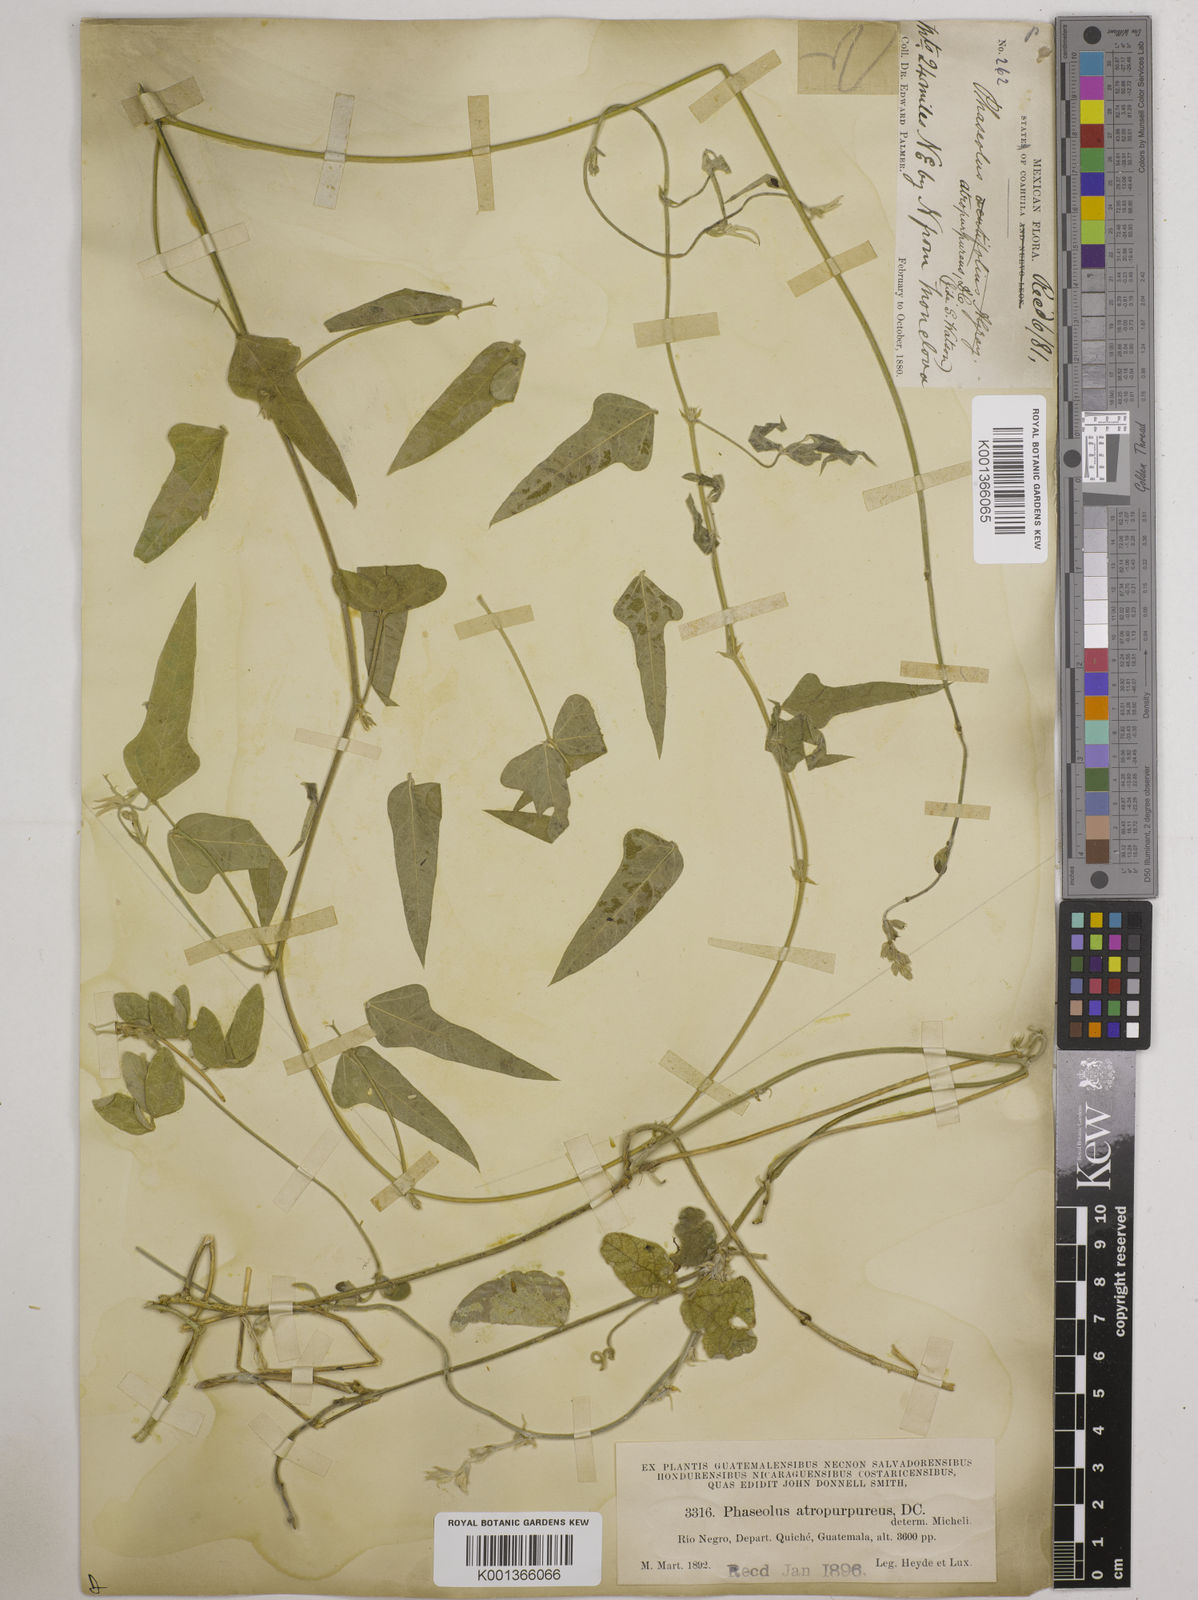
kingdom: Plantae
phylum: Tracheophyta
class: Magnoliopsida
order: Fabales
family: Fabaceae
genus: Macroptilium
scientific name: Macroptilium atropurpureum
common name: Purple bushbean
